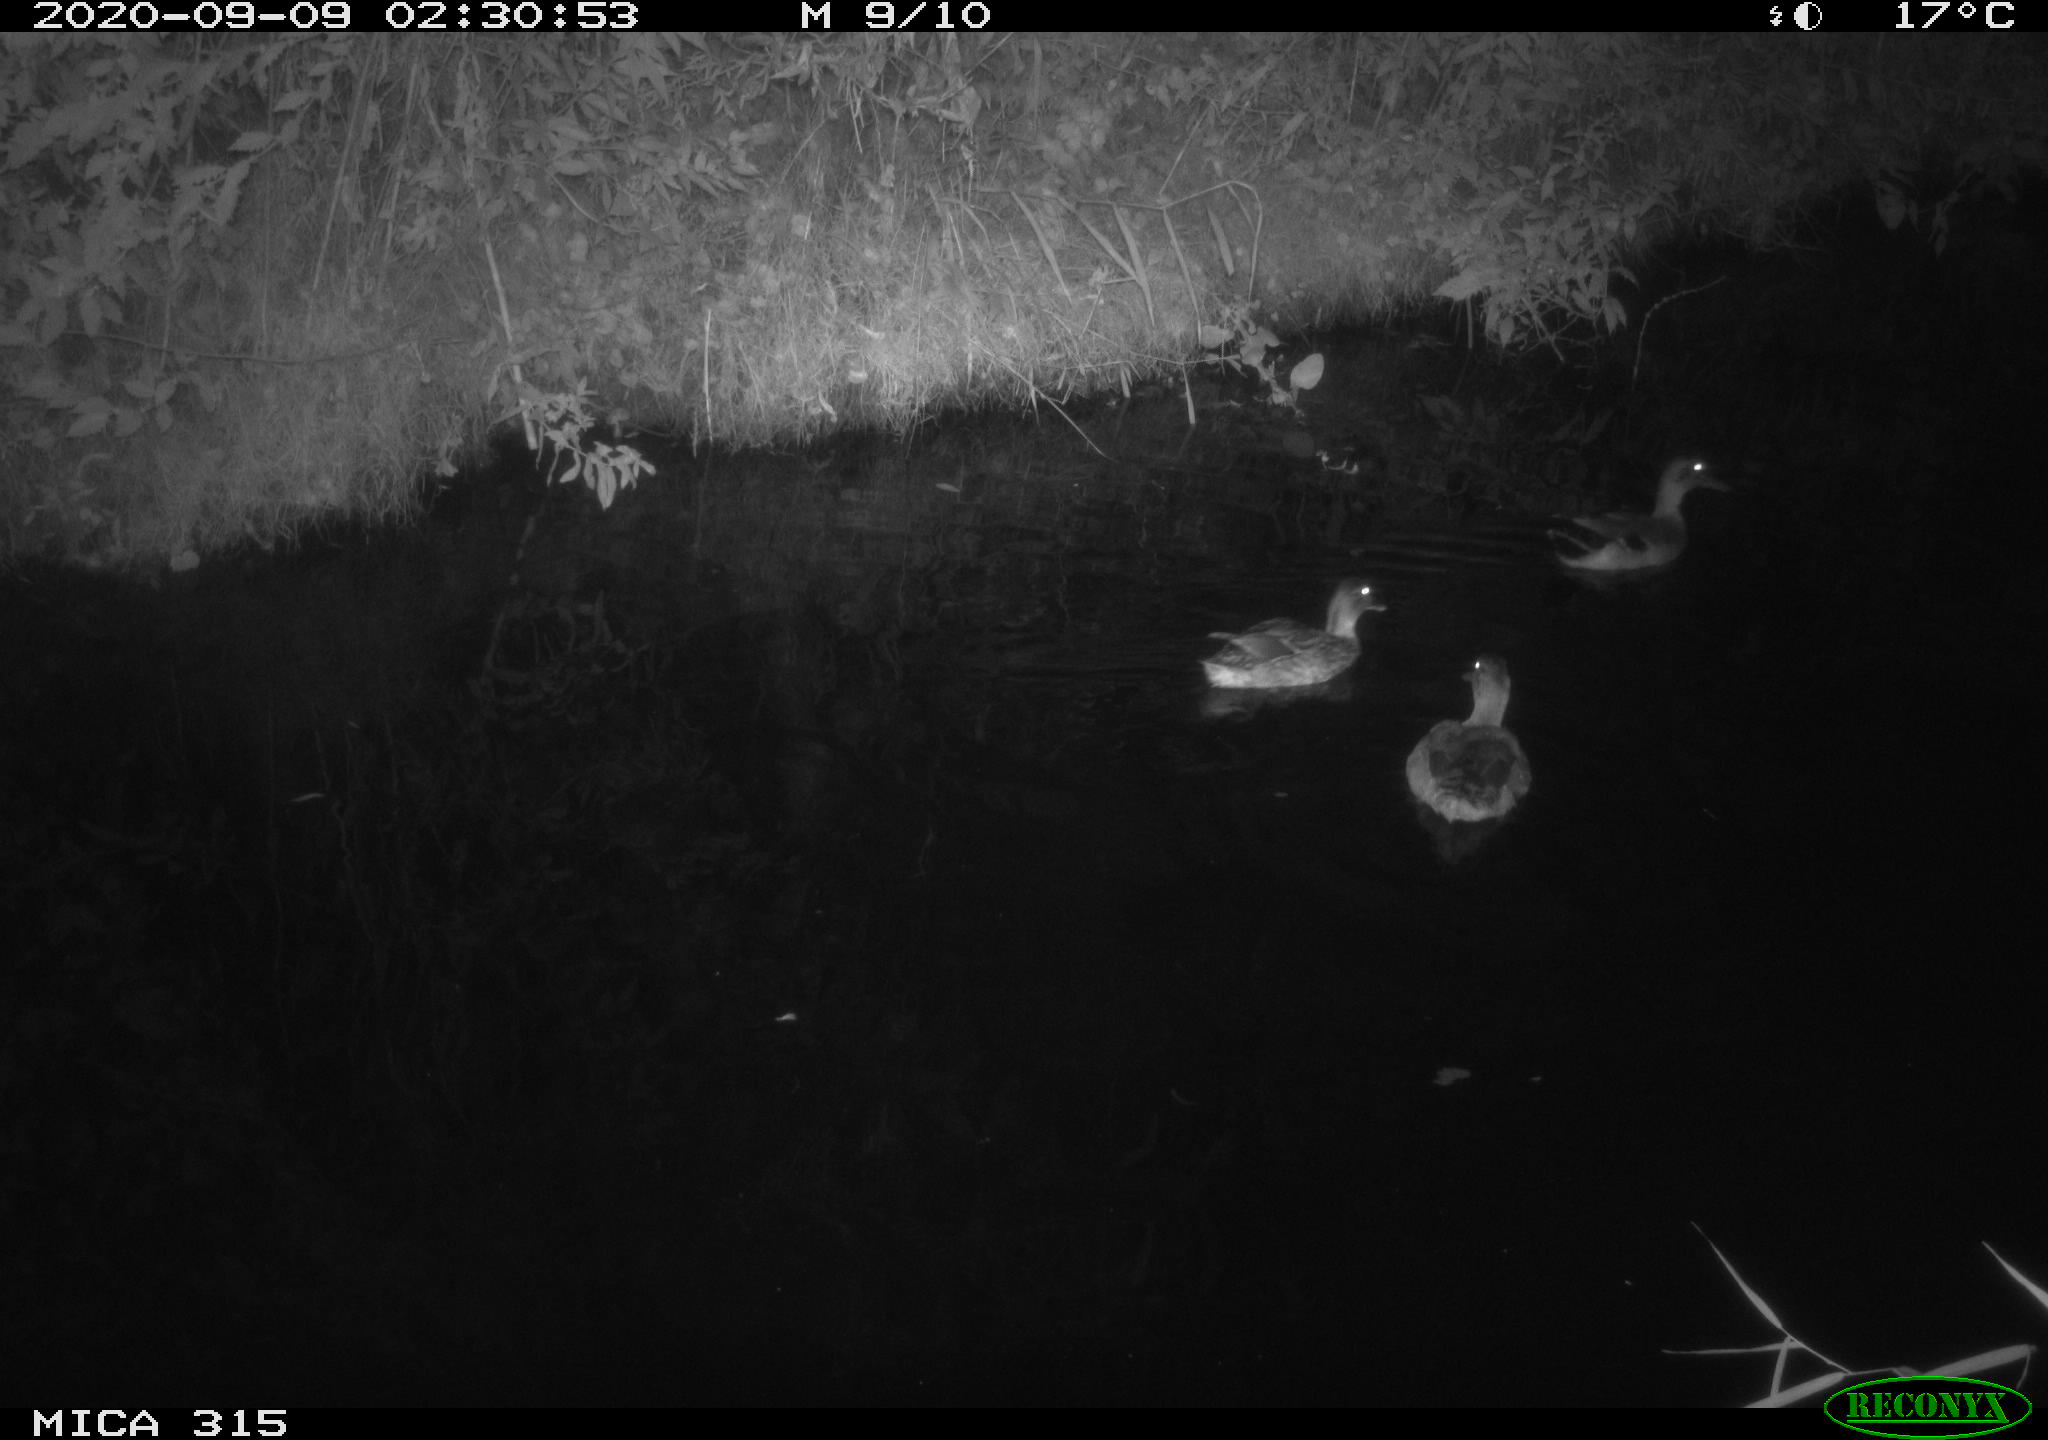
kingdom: Animalia
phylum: Chordata
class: Aves
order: Anseriformes
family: Anatidae
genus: Anas
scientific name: Anas platyrhynchos
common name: Mallard
